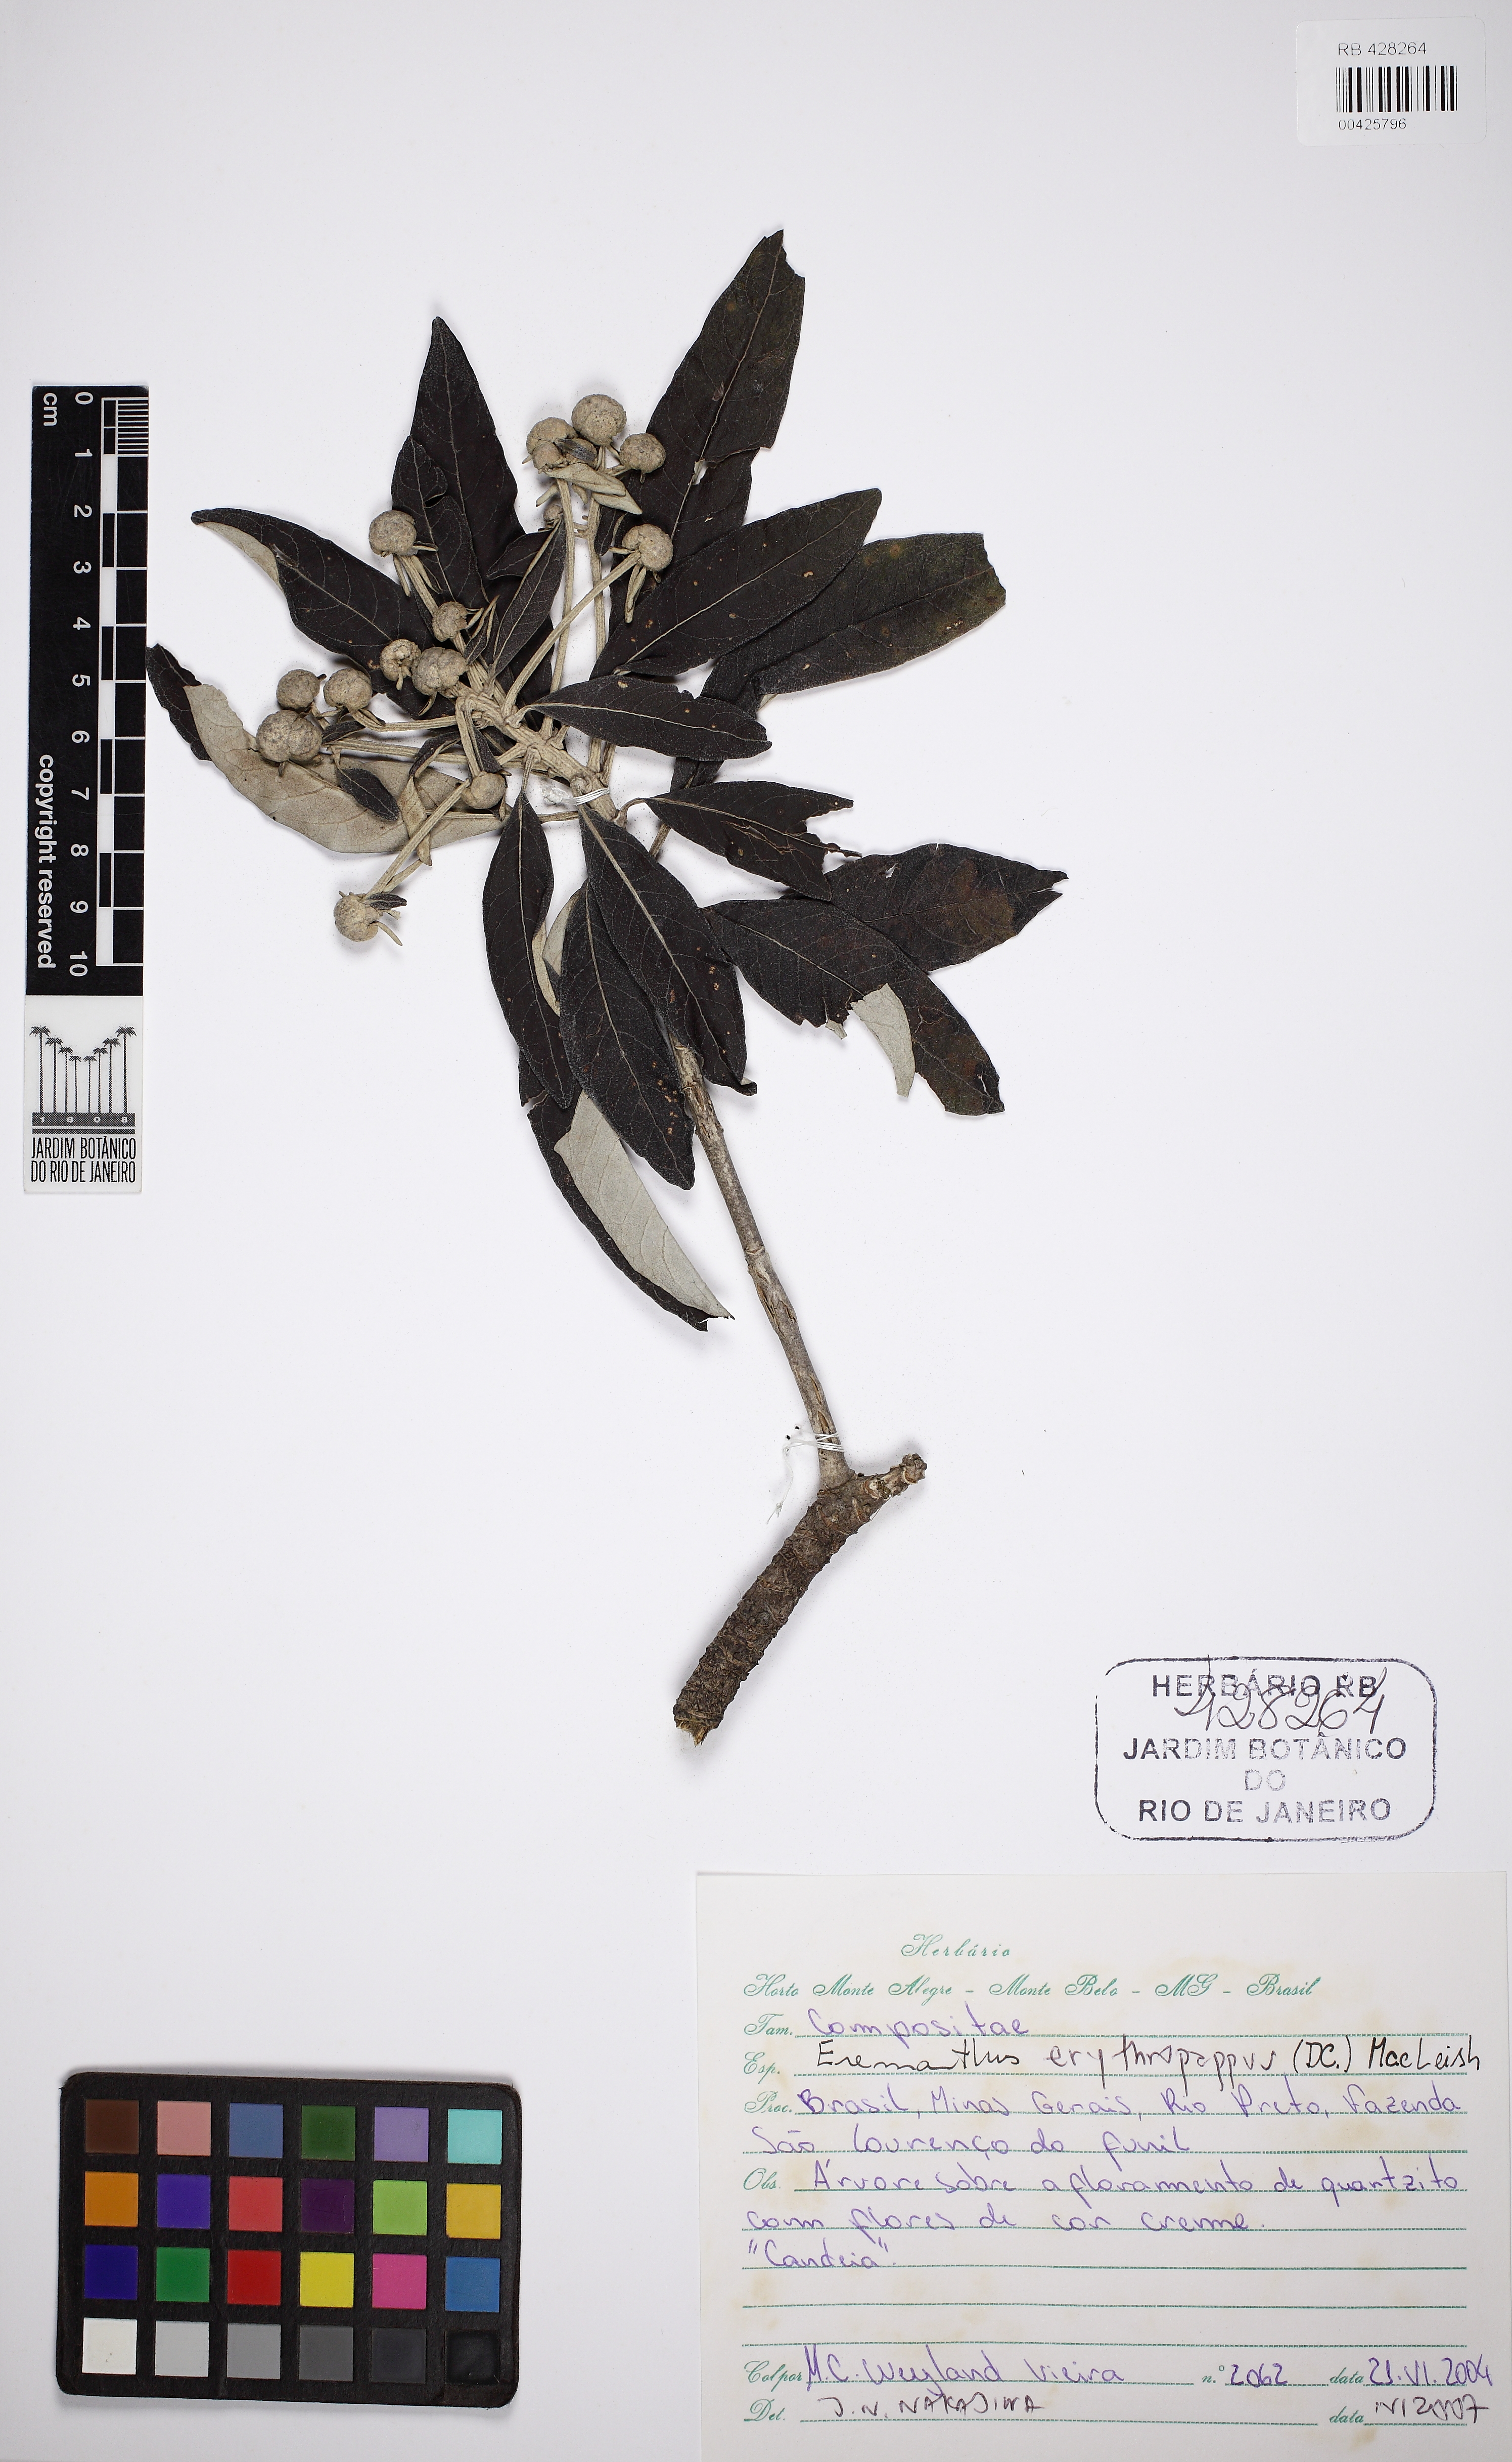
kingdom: Plantae
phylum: Tracheophyta
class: Magnoliopsida
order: Asterales
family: Asteraceae
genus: Eremanthus
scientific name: Eremanthus
